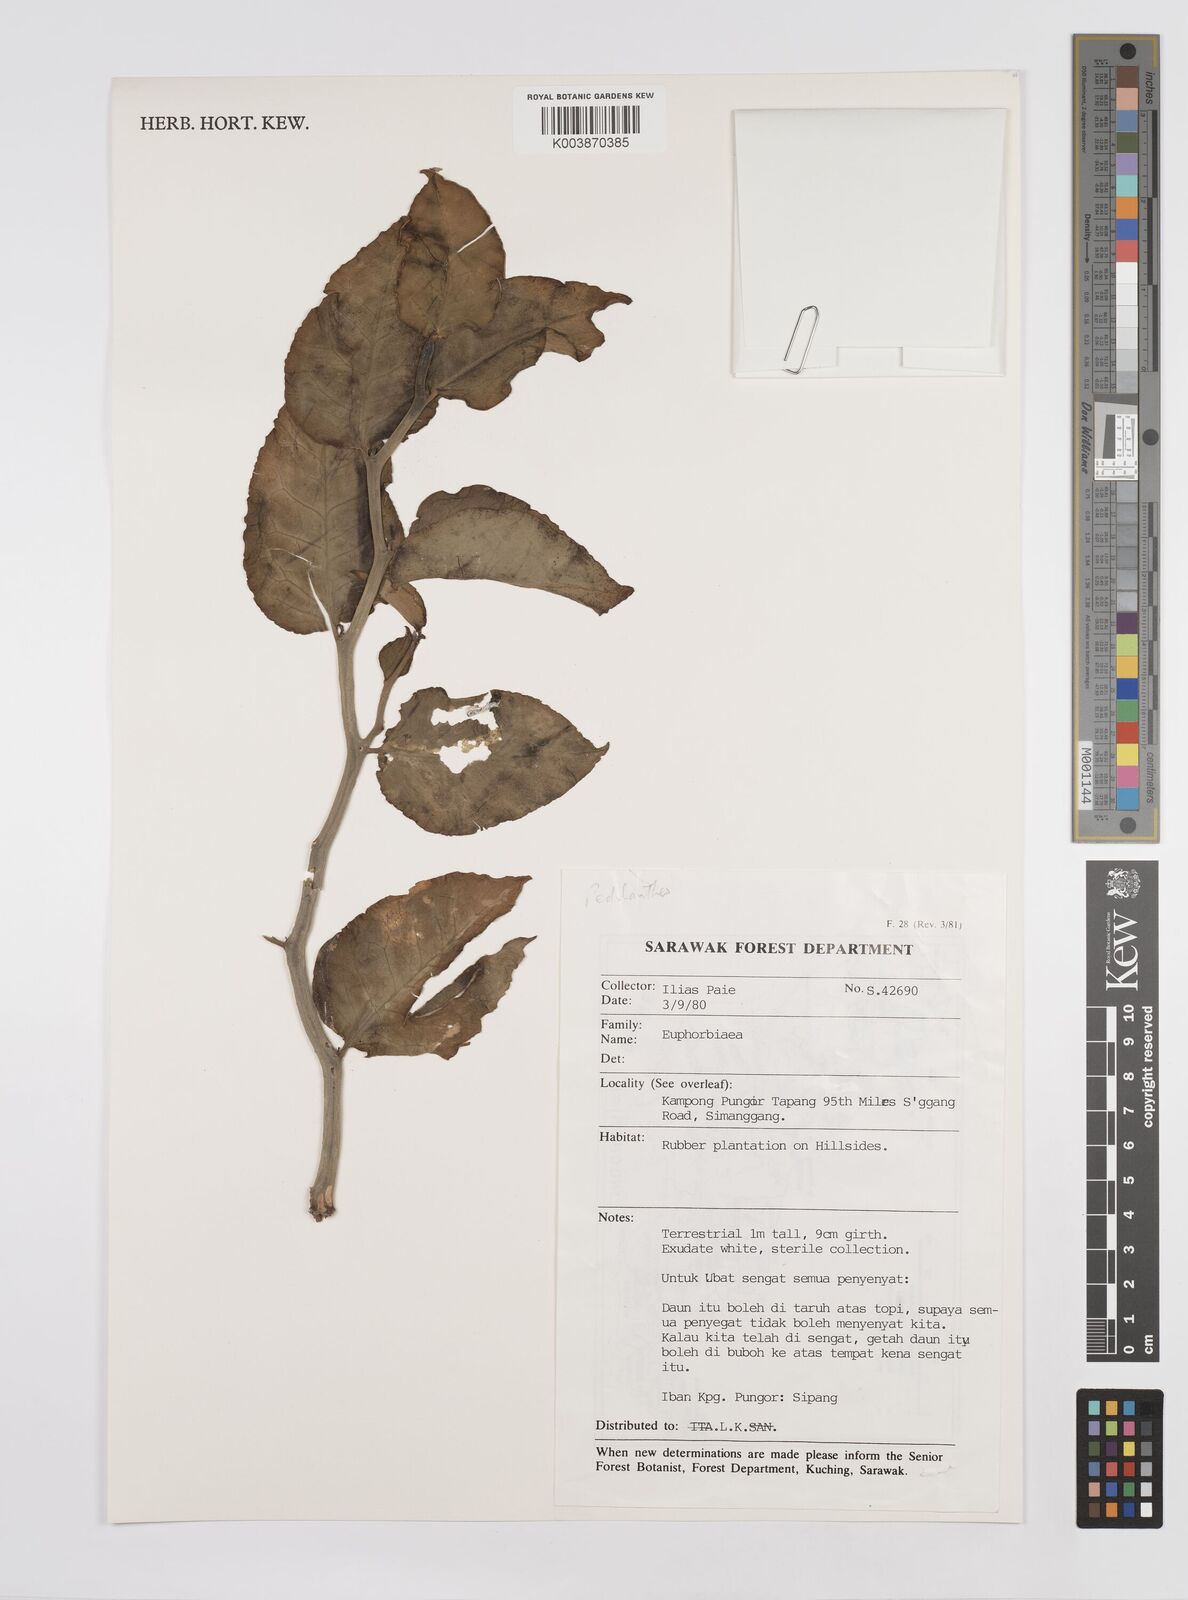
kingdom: Plantae
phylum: Tracheophyta
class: Magnoliopsida
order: Malpighiales
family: Euphorbiaceae
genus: Euphorbia
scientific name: Euphorbia tithymaloides
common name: Slipperplant
